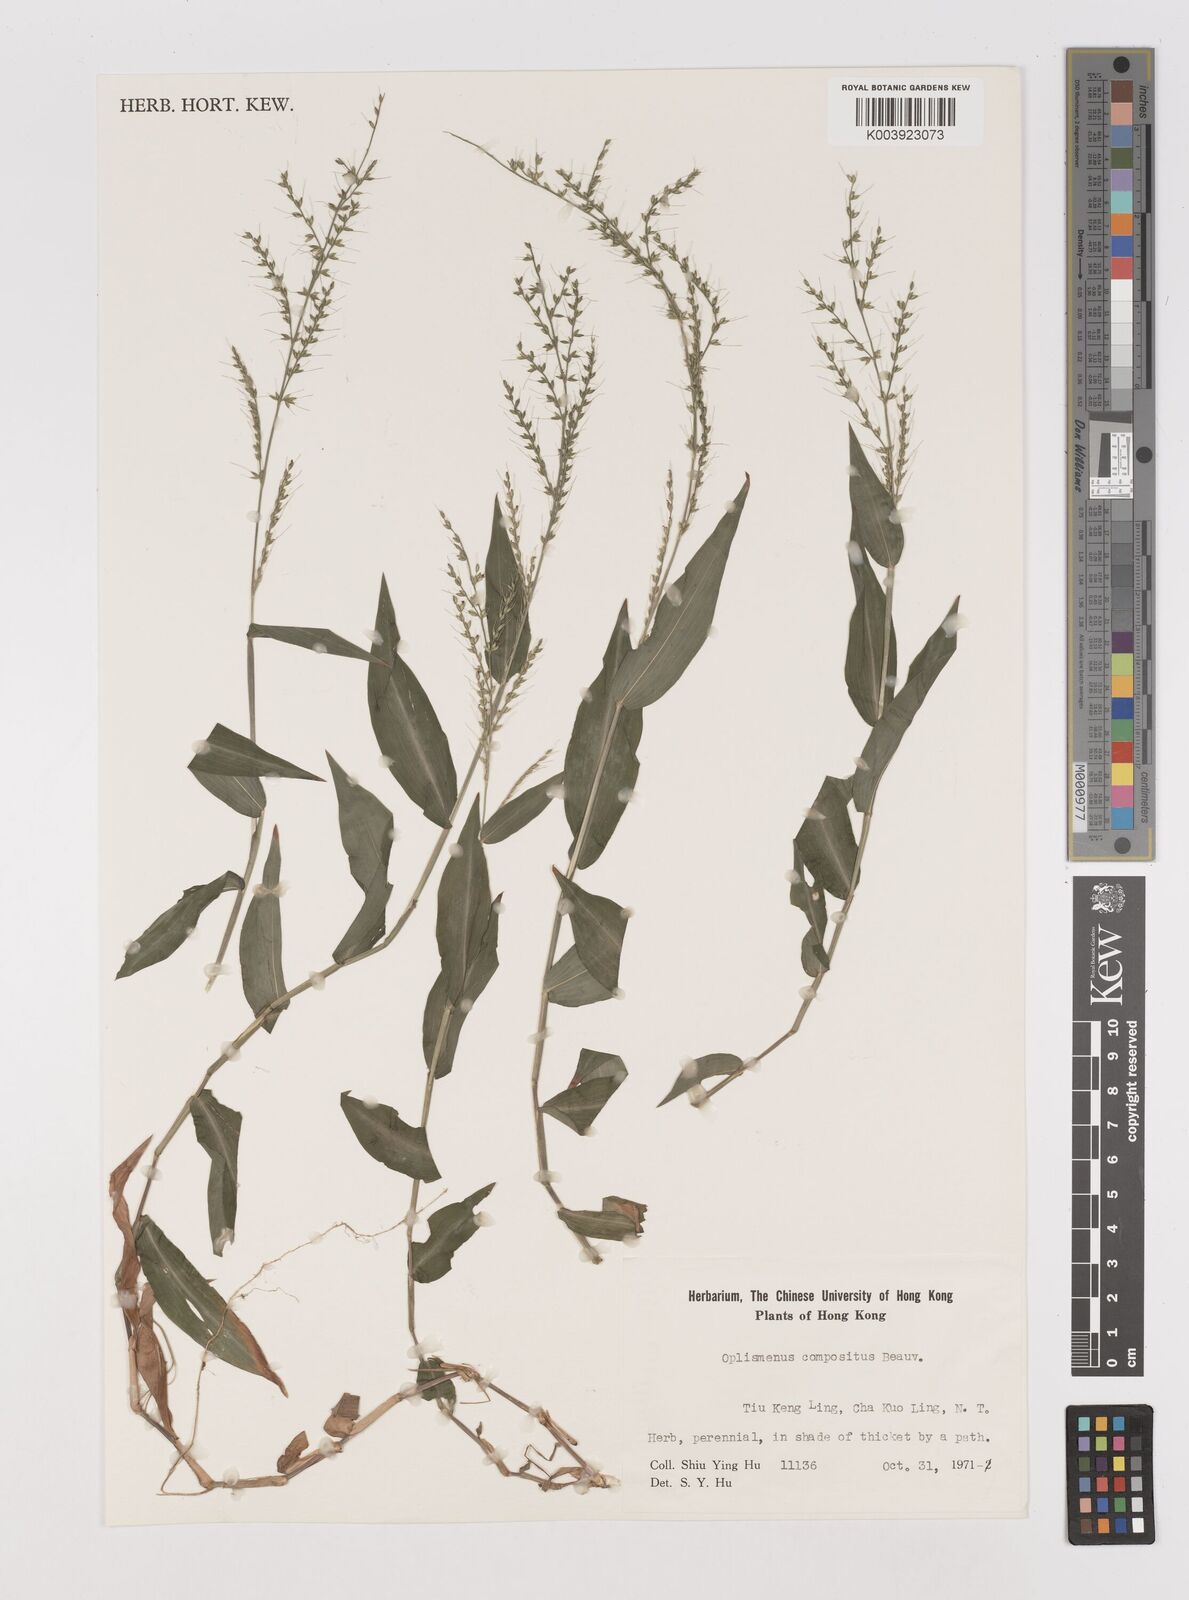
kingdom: Plantae
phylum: Tracheophyta
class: Liliopsida
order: Poales
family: Poaceae
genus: Oplismenus
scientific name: Oplismenus compositus
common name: Running mountain grass
